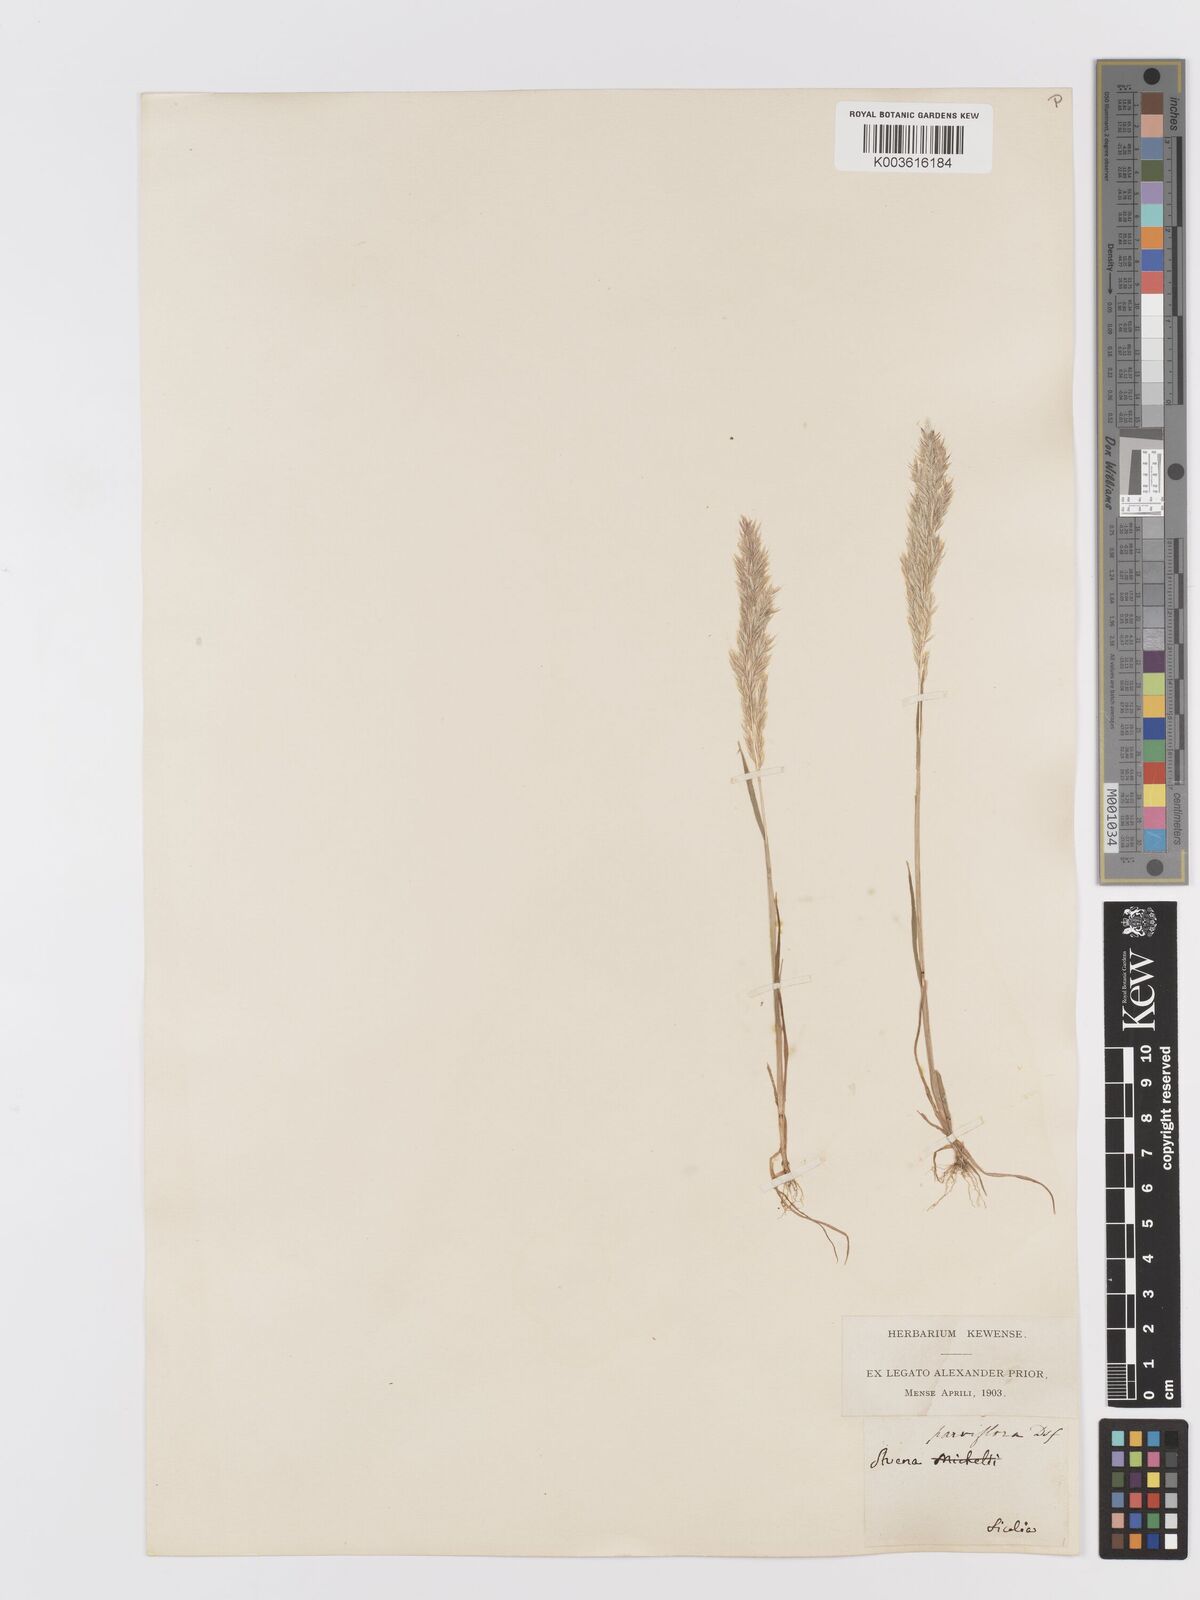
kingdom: Plantae
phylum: Tracheophyta
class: Liliopsida
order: Poales
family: Poaceae
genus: Trisetaria
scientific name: Trisetaria parviflora
